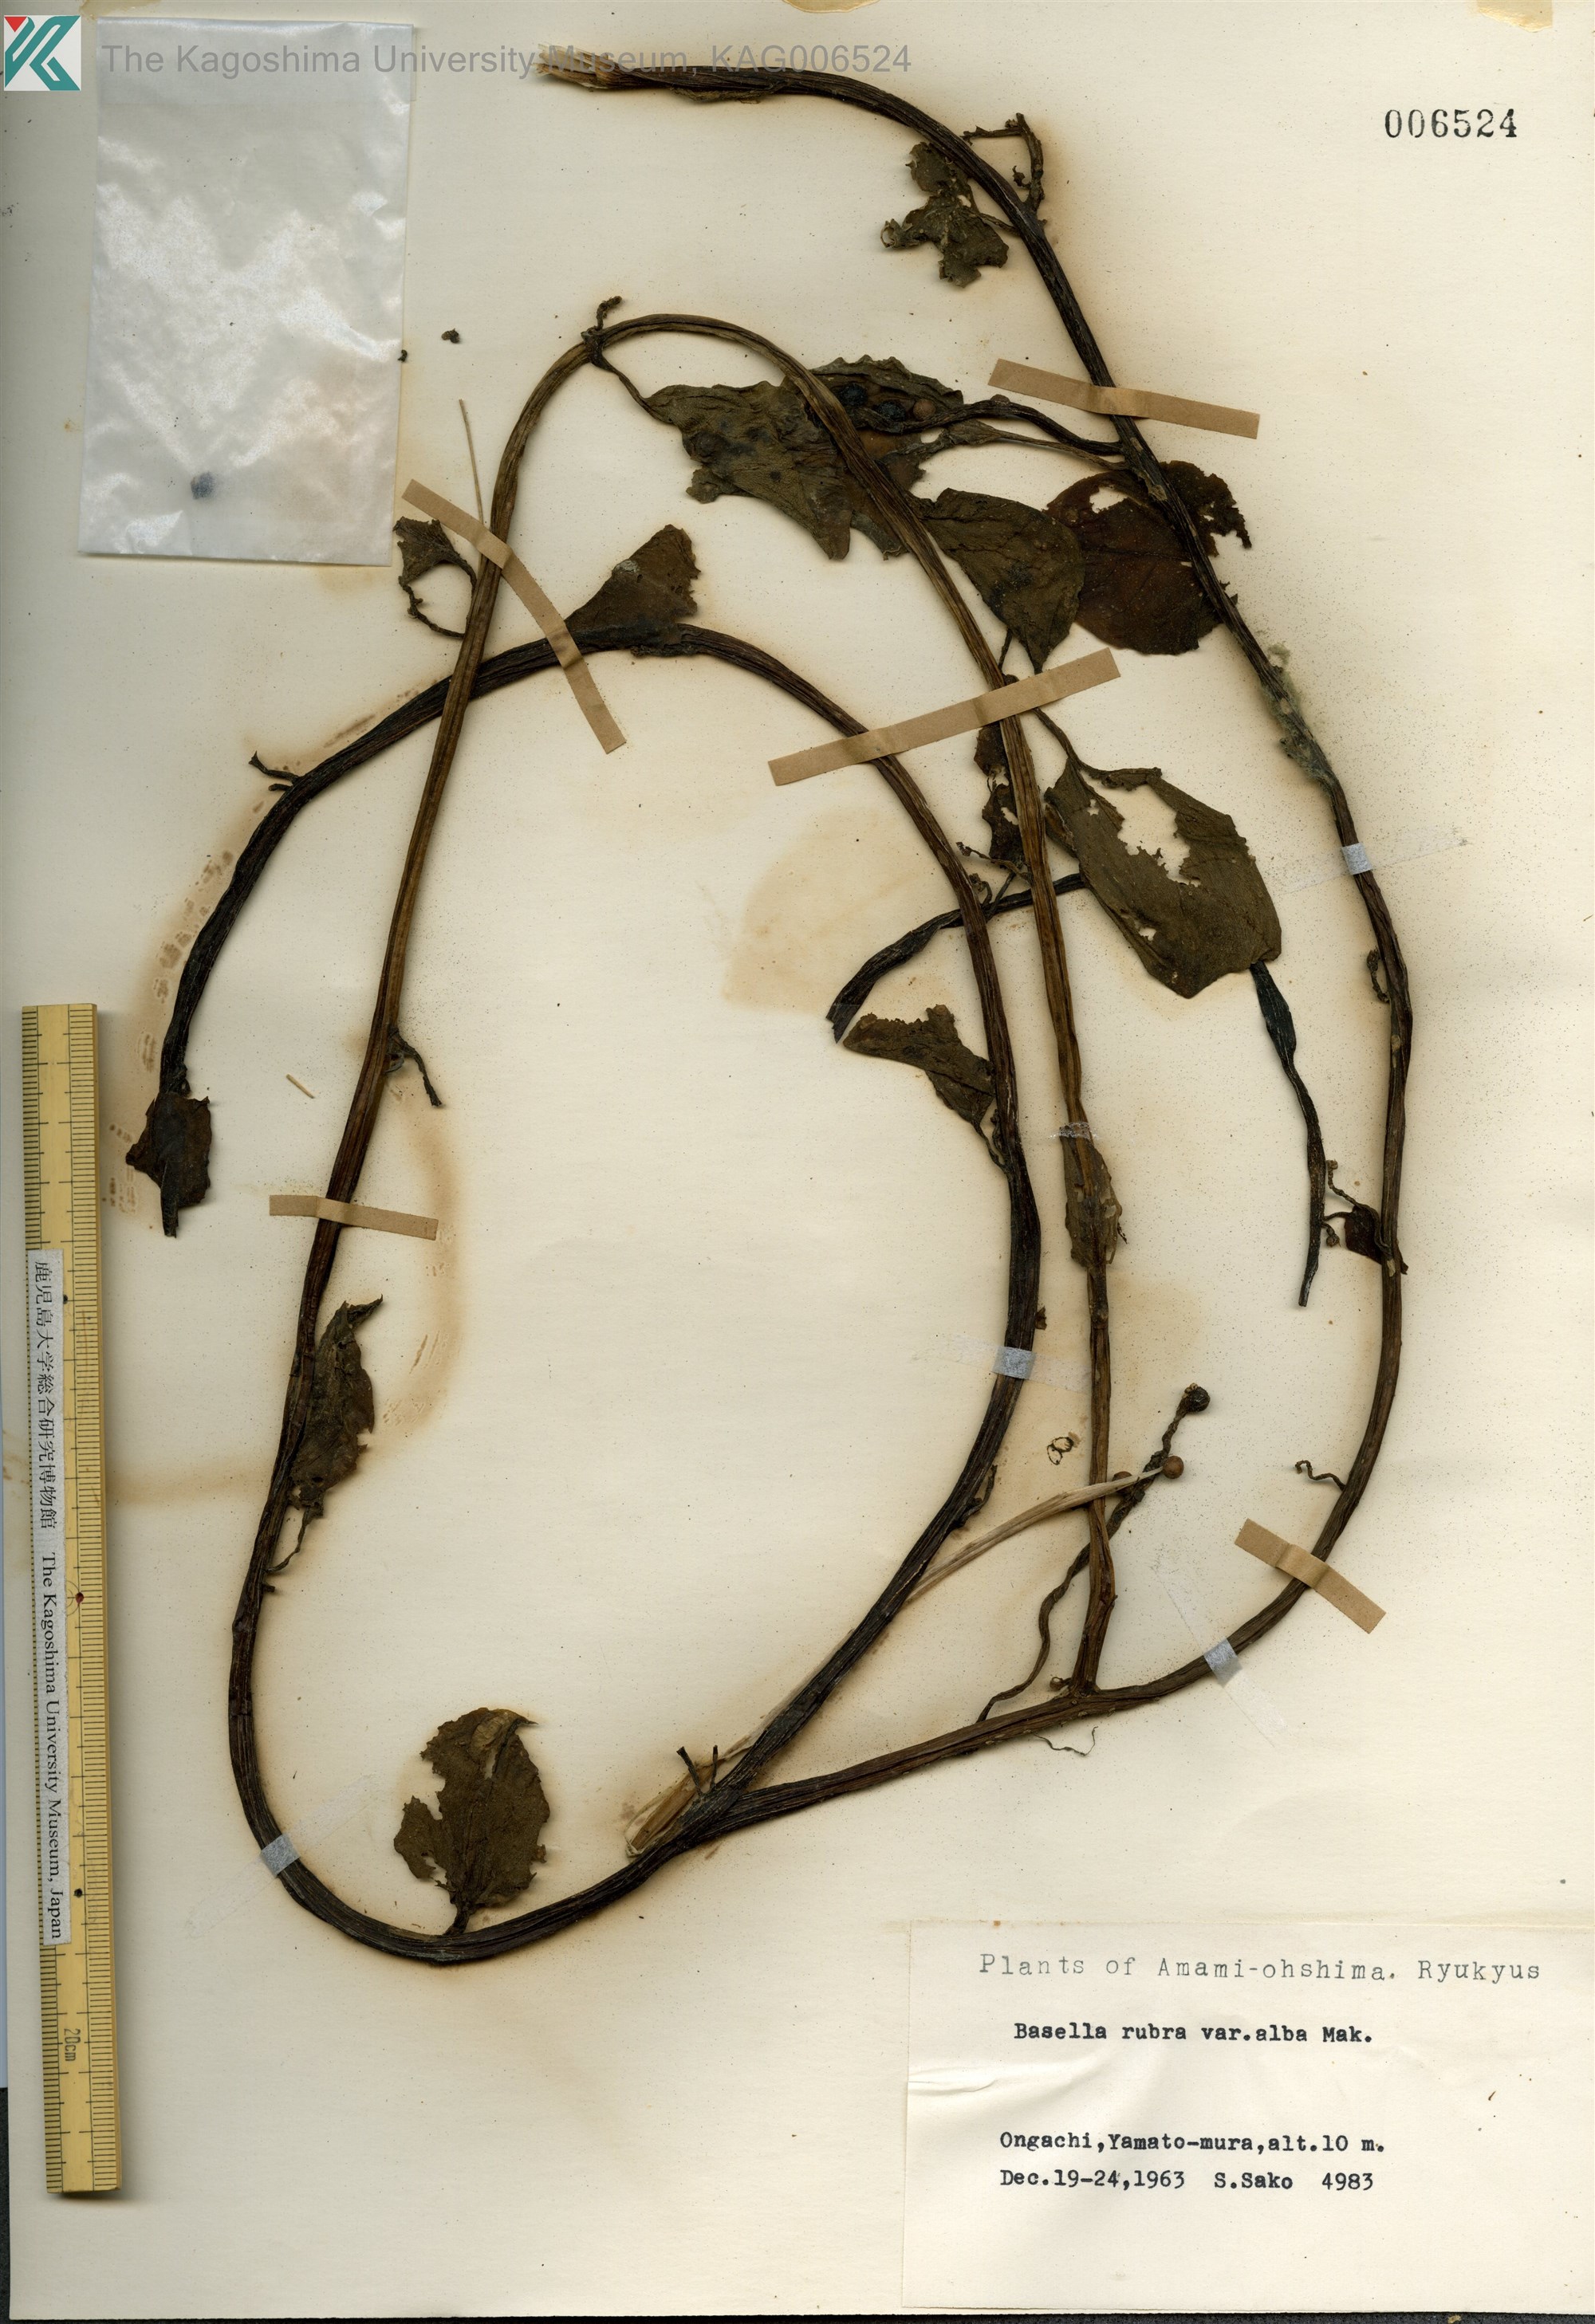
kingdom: Plantae
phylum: Tracheophyta
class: Magnoliopsida
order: Caryophyllales
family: Basellaceae
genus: Basella
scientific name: Basella alba
